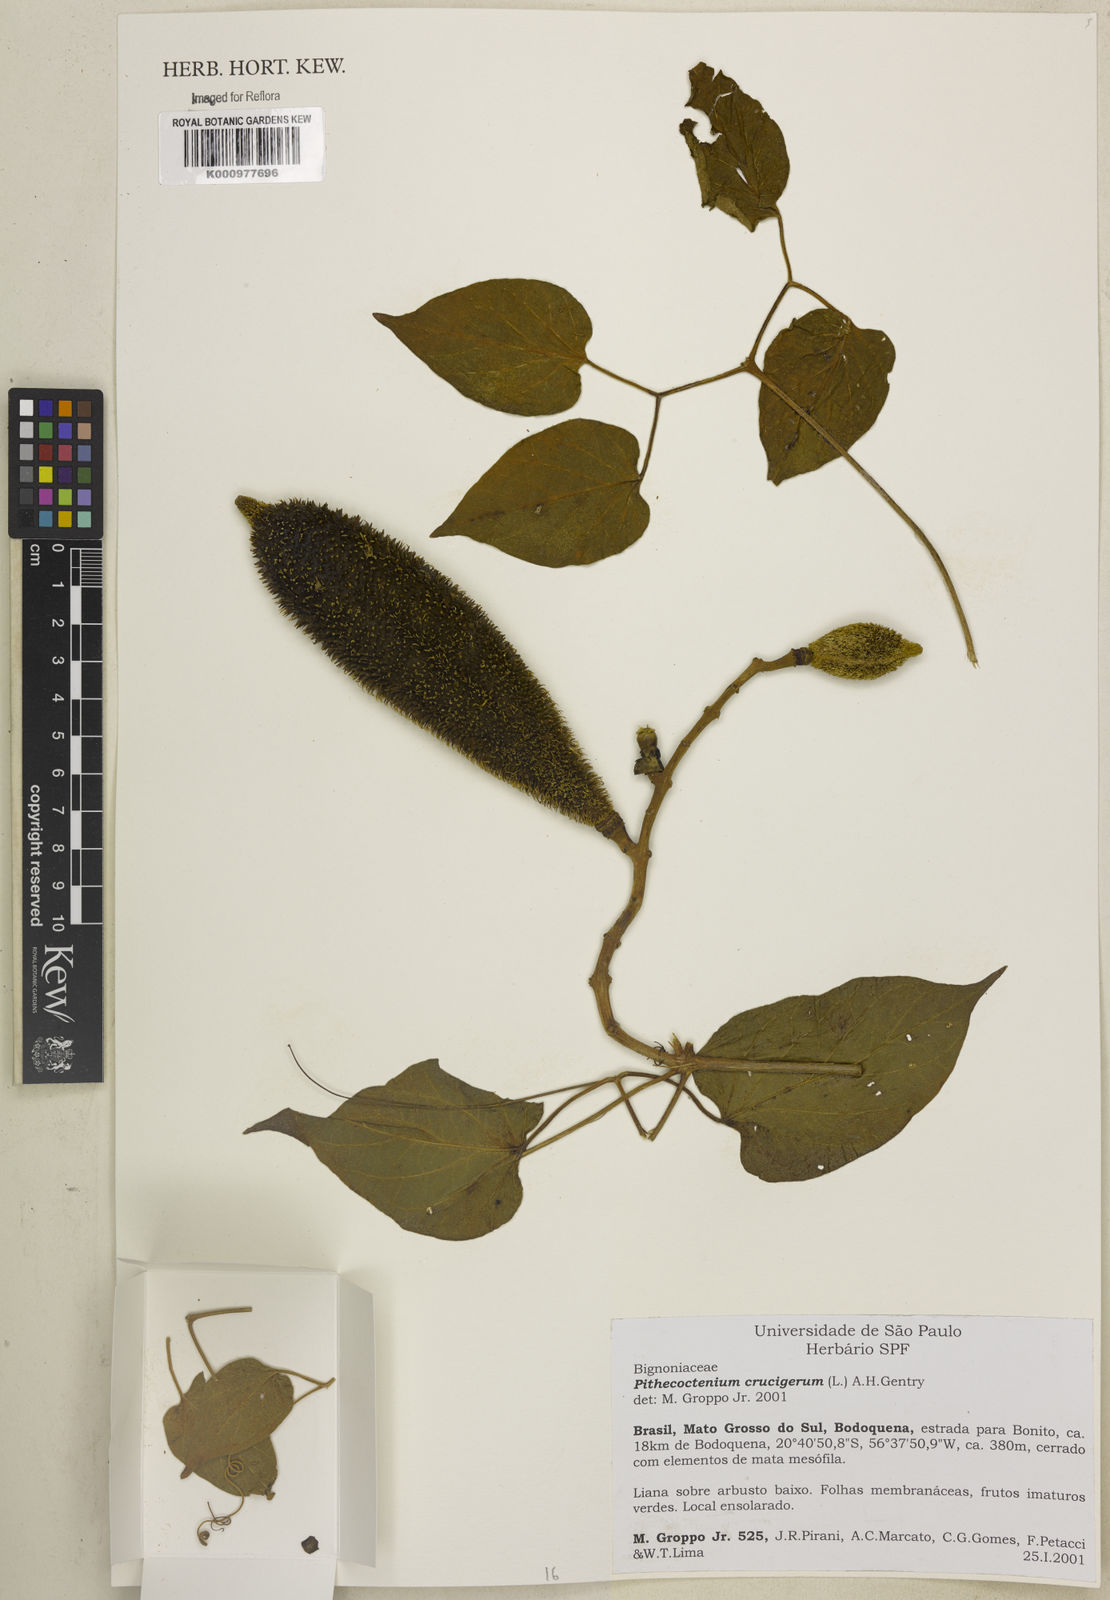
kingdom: Plantae
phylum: Tracheophyta
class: Magnoliopsida
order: Lamiales
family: Bignoniaceae
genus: Amphilophium
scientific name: Amphilophium crucigerum
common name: Monkey comb
